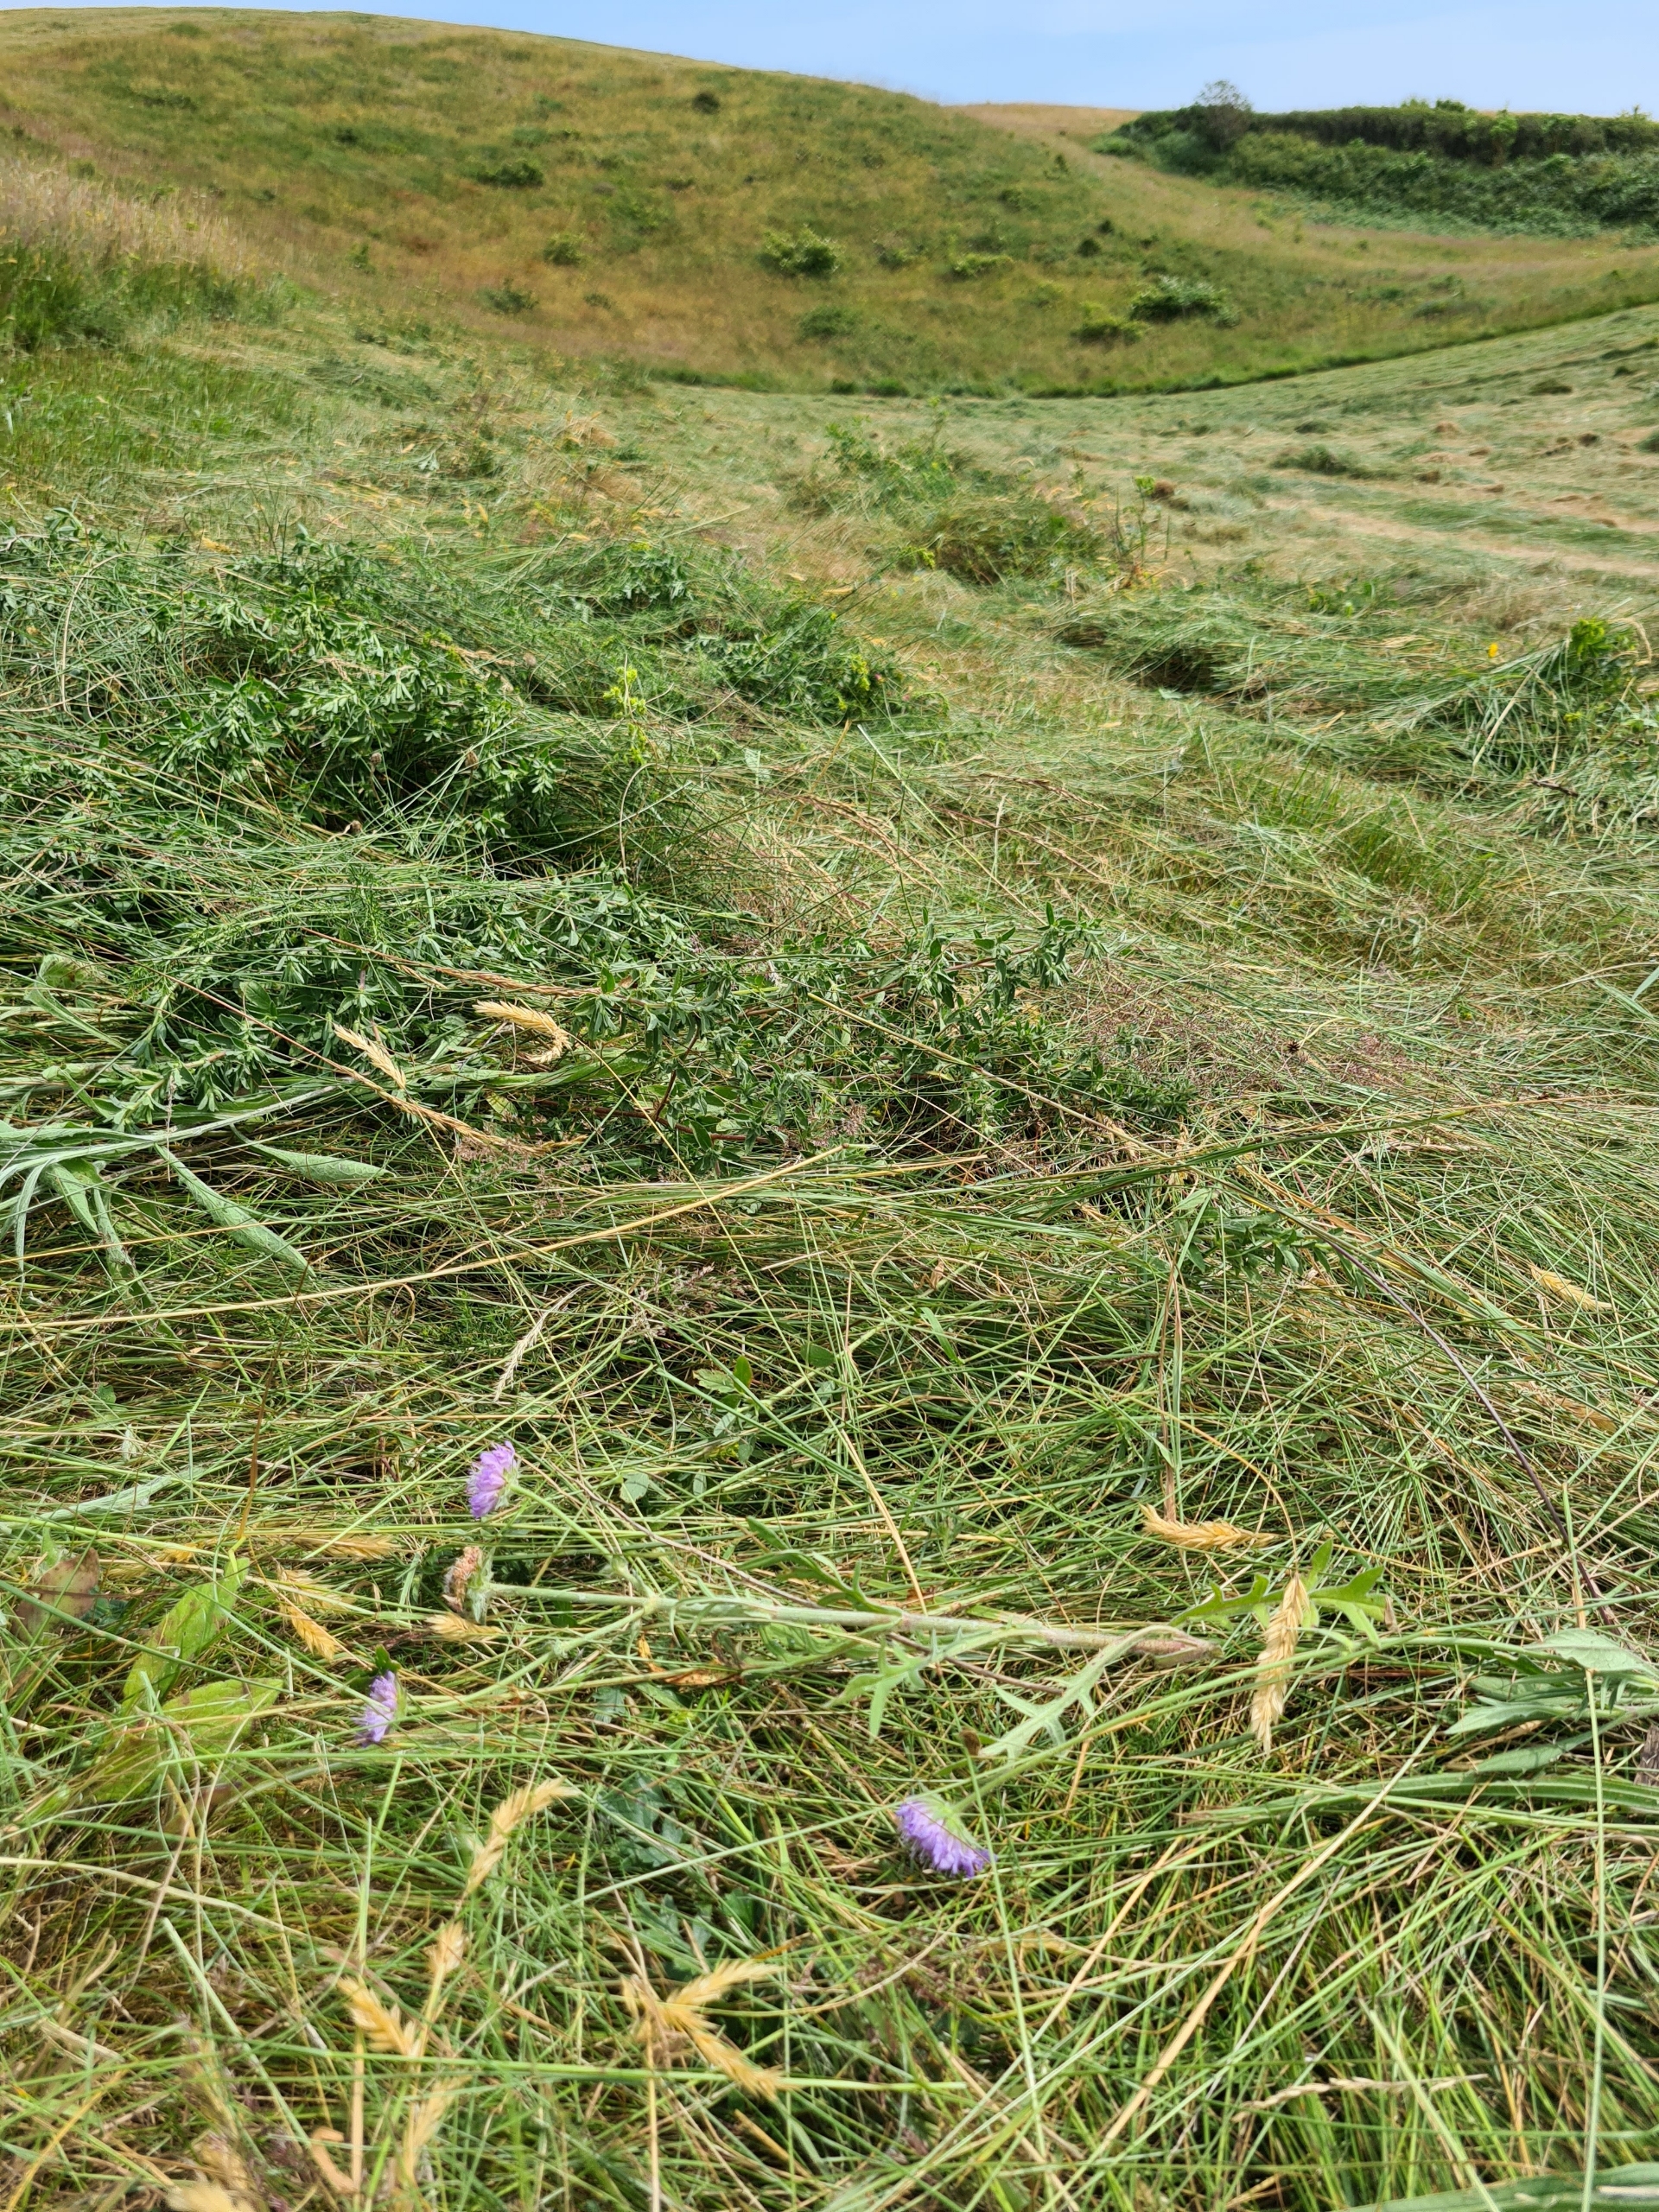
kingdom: Plantae
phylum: Tracheophyta
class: Magnoliopsida
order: Dipsacales
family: Caprifoliaceae
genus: Knautia
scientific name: Knautia arvensis
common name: Blåhat
